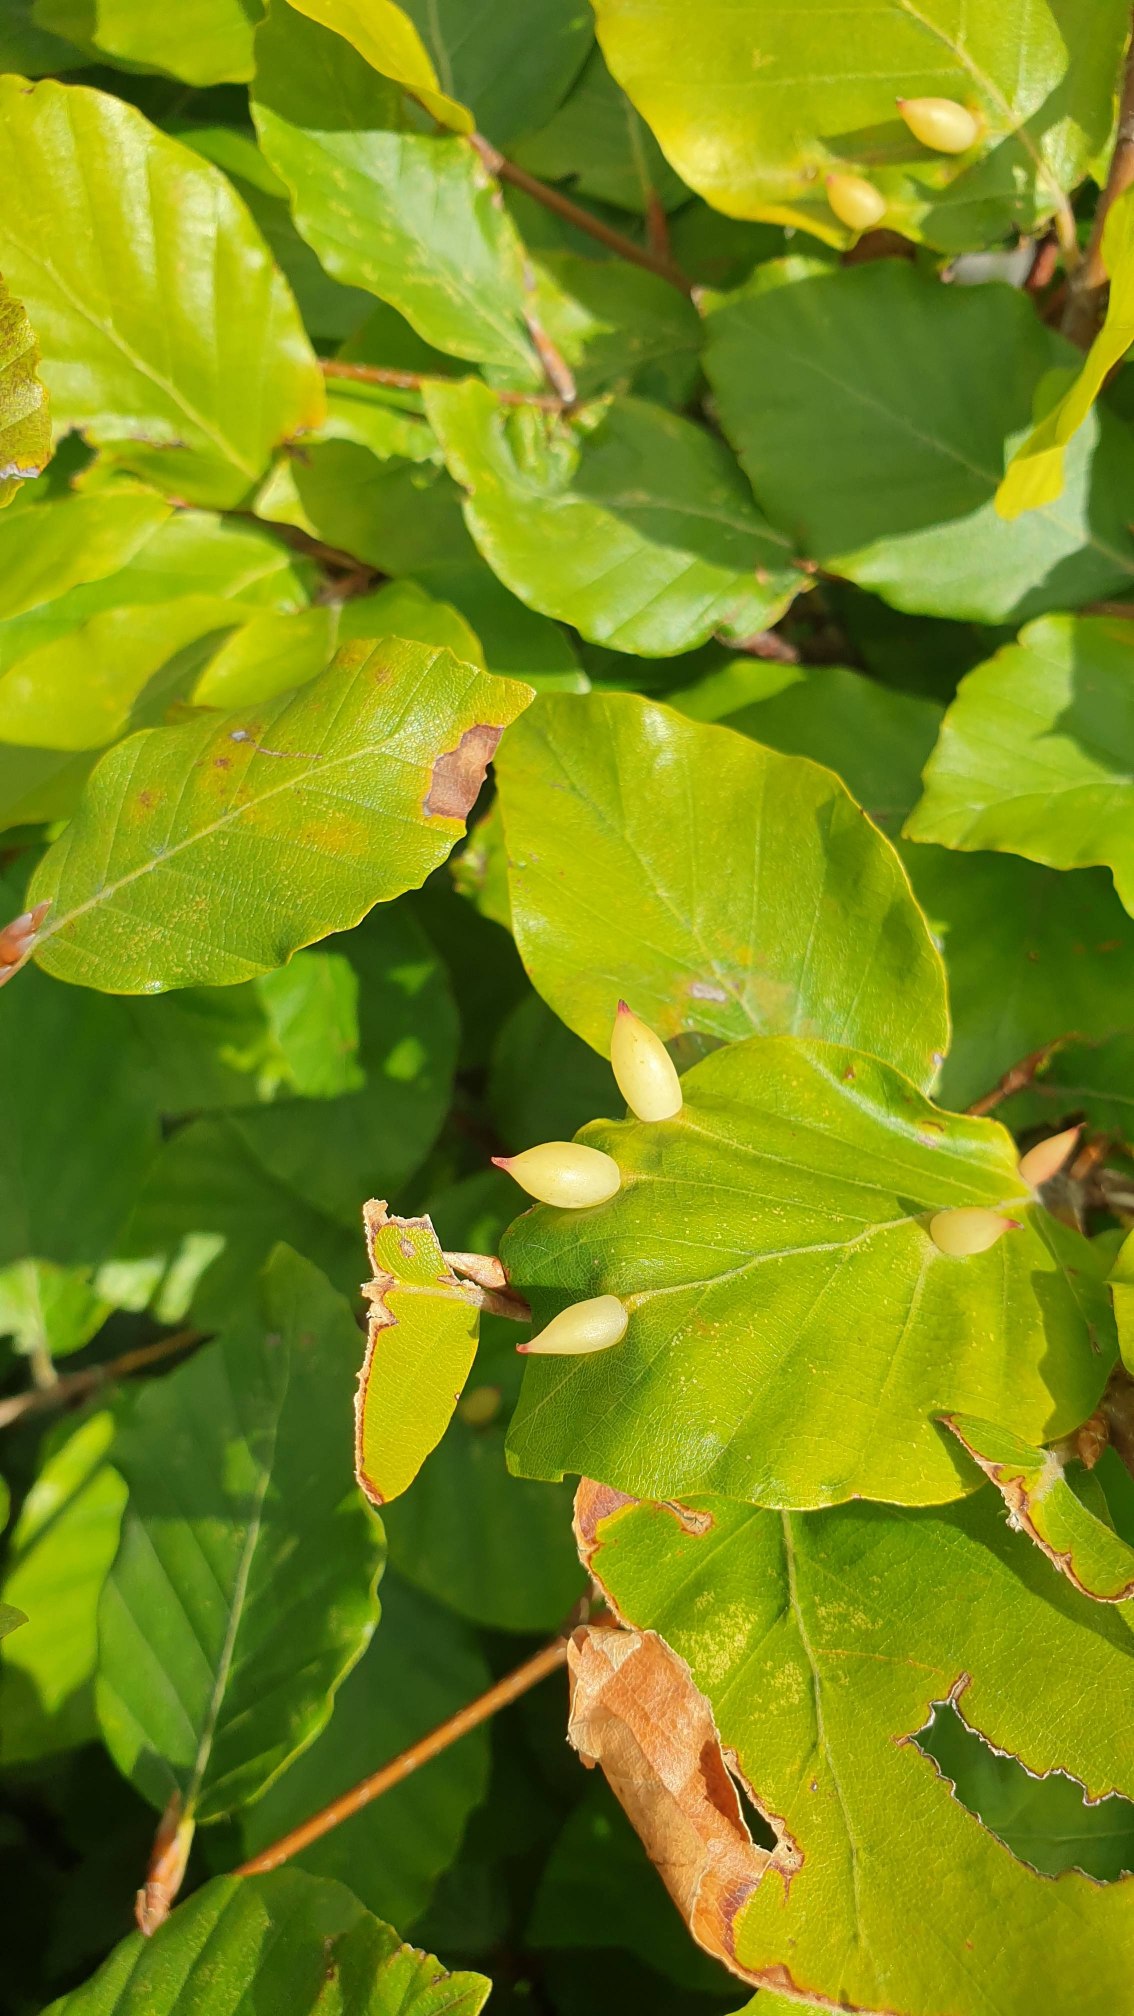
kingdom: Animalia
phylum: Arthropoda
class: Insecta
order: Diptera
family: Cecidomyiidae
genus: Mikiola
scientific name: Mikiola fagi
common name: Bøgegalmyg
